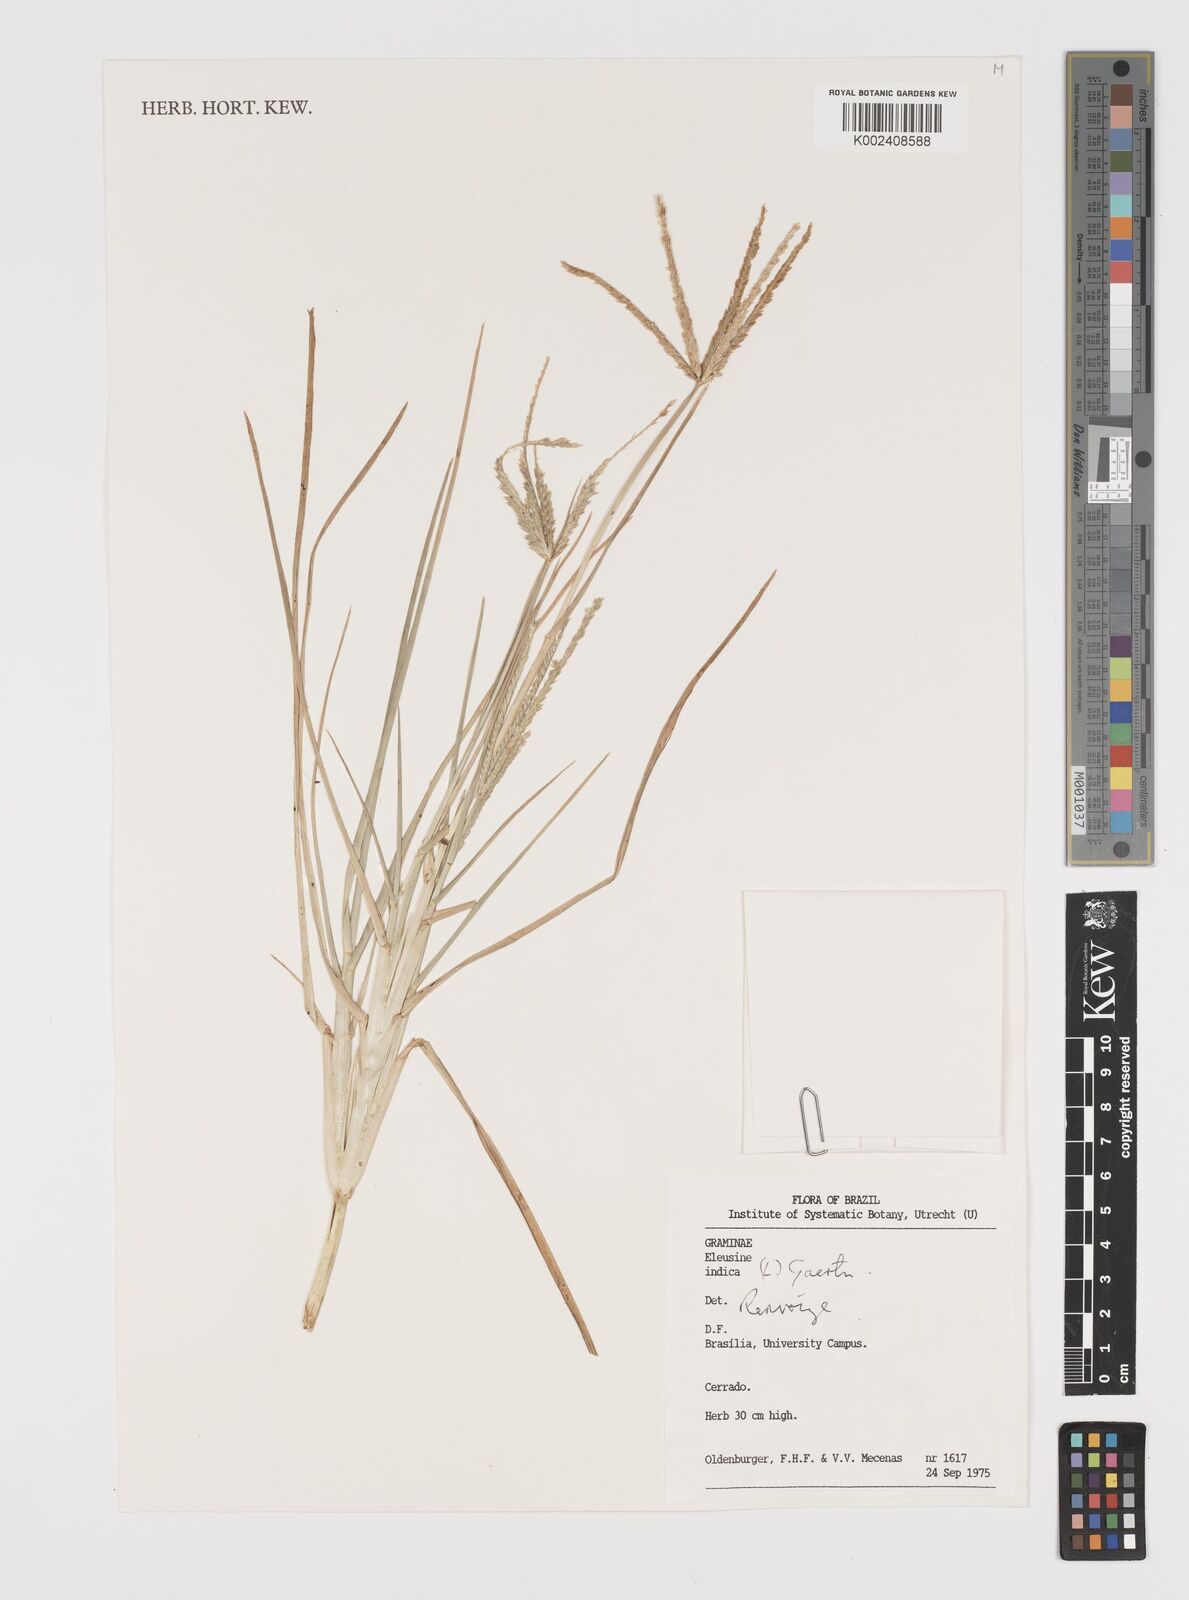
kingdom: Plantae
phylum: Tracheophyta
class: Liliopsida
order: Poales
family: Poaceae
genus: Eleusine
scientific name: Eleusine indica
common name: Yard-grass
